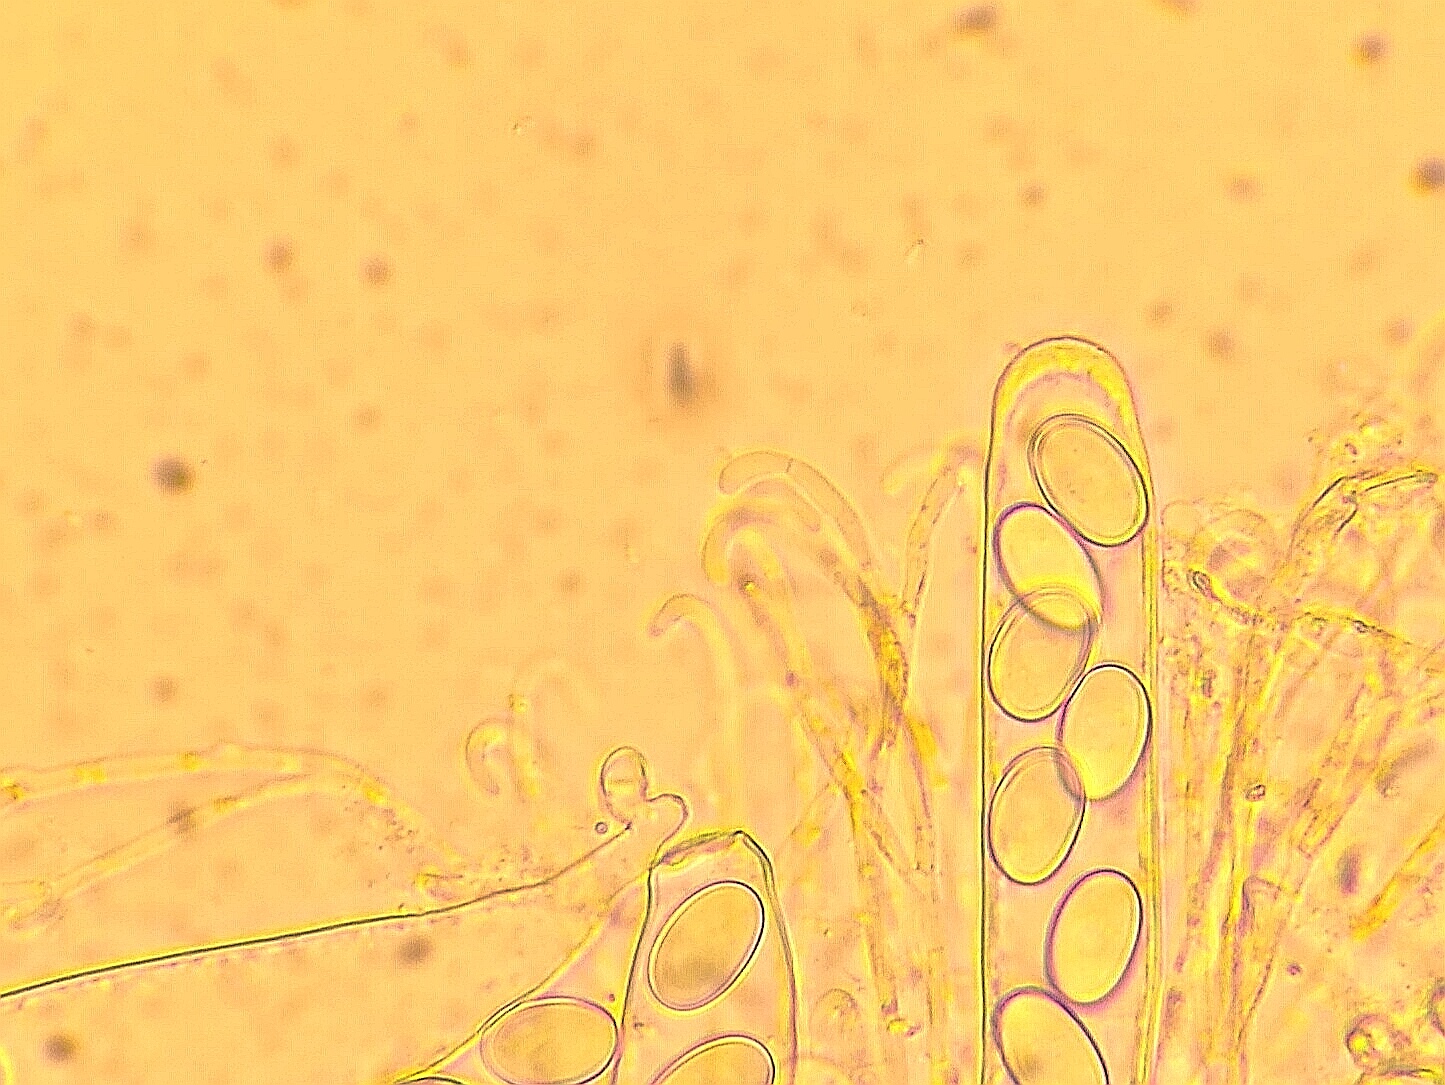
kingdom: Fungi
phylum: Ascomycota
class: Pezizomycetes
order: Pezizales
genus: Coprotus
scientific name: Coprotus luteus
